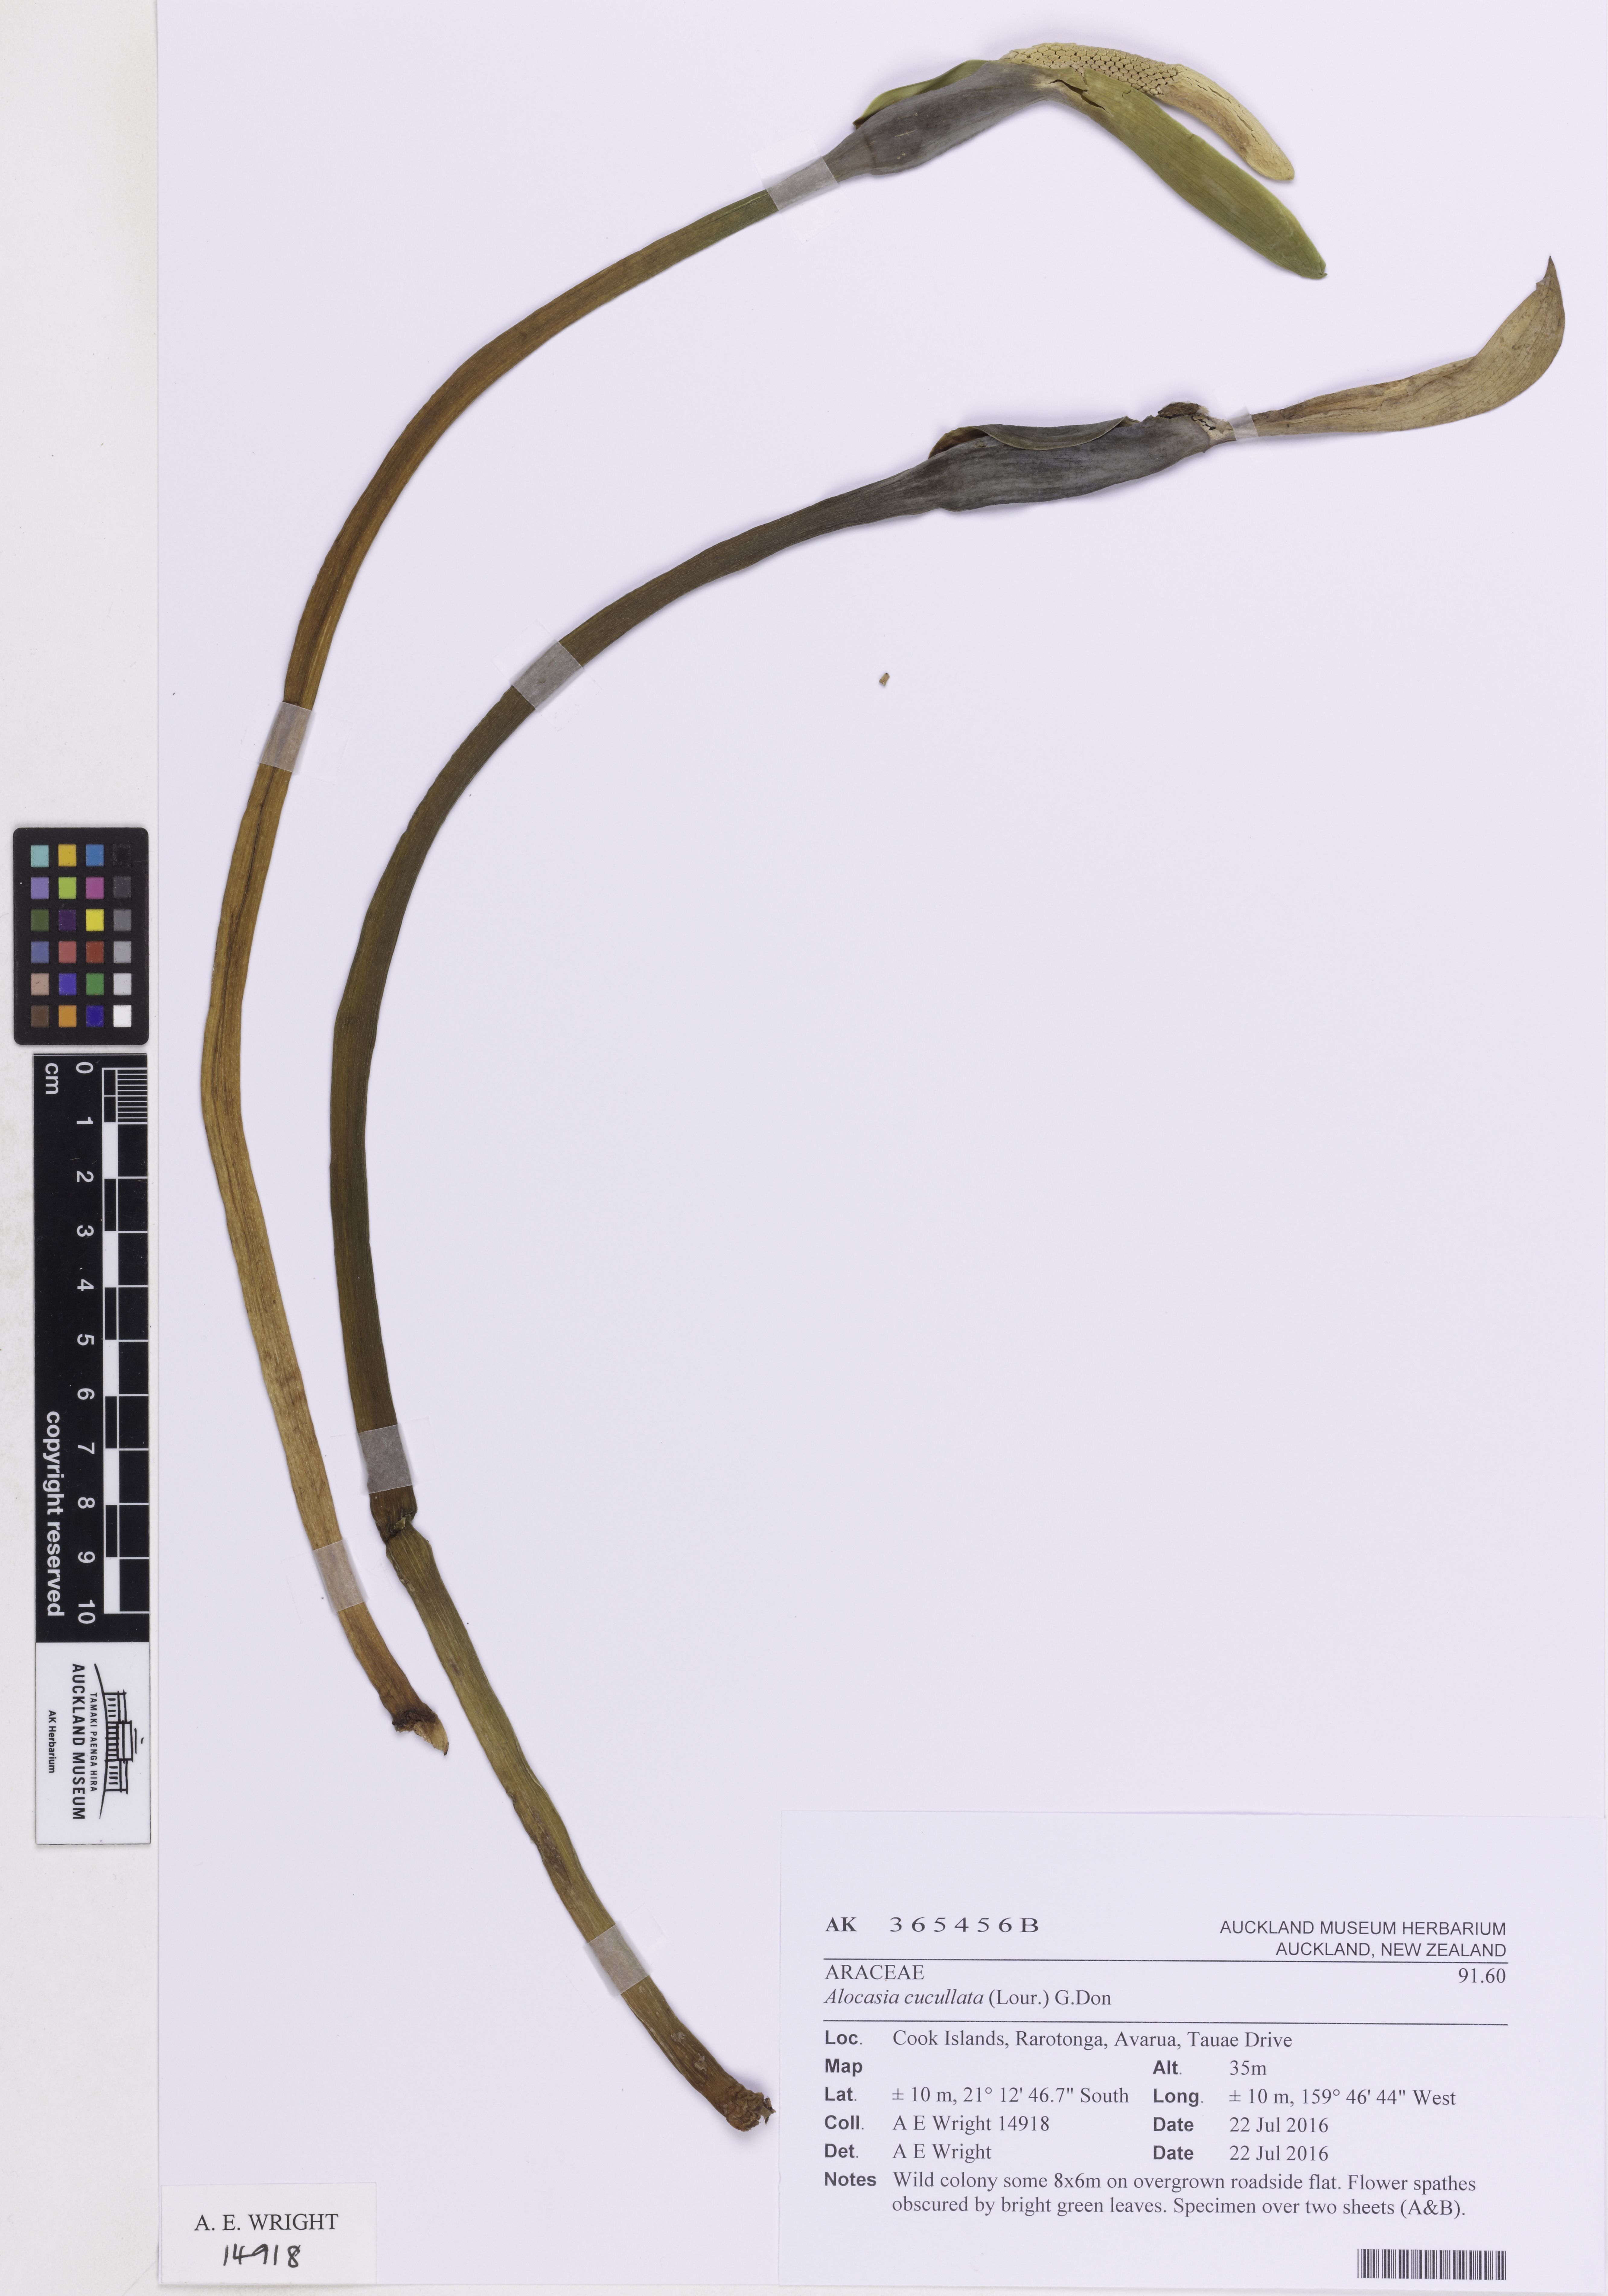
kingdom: Plantae
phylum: Tracheophyta
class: Liliopsida
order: Alismatales
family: Araceae
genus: Alocasia
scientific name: Alocasia cucullata
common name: Buddha's hand
